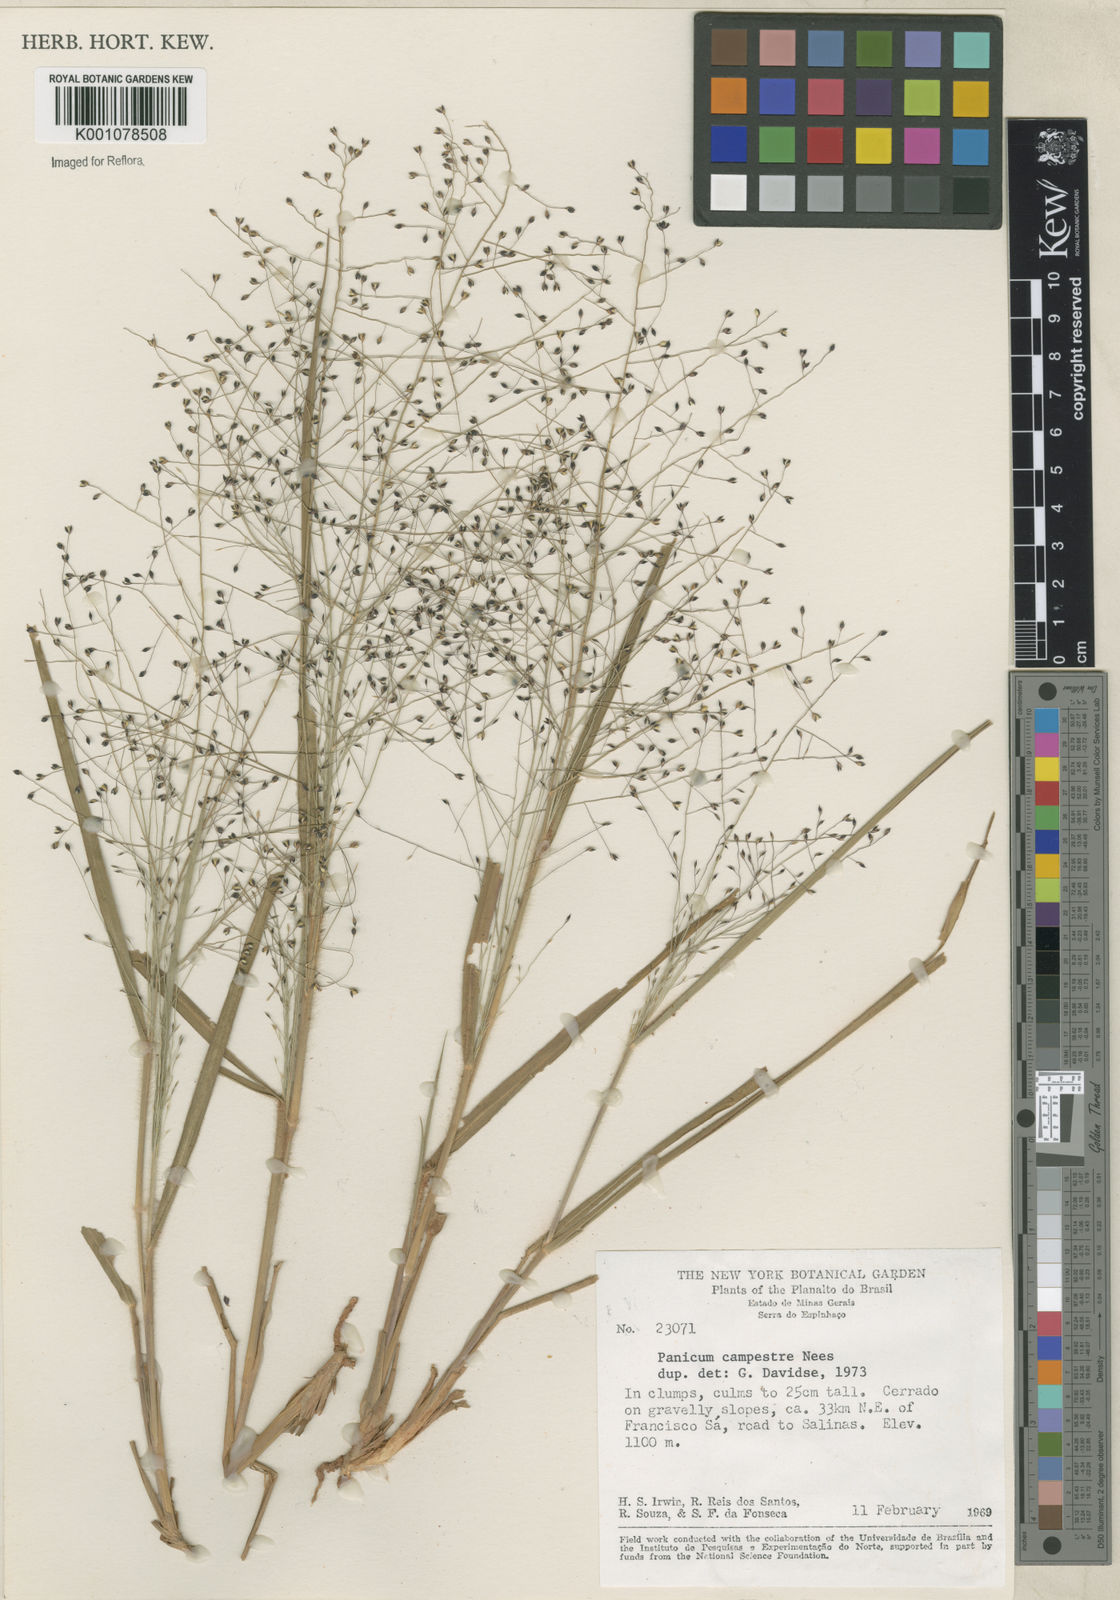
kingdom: Plantae
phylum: Tracheophyta
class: Liliopsida
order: Poales
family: Poaceae
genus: Panicum
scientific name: Panicum campestre
